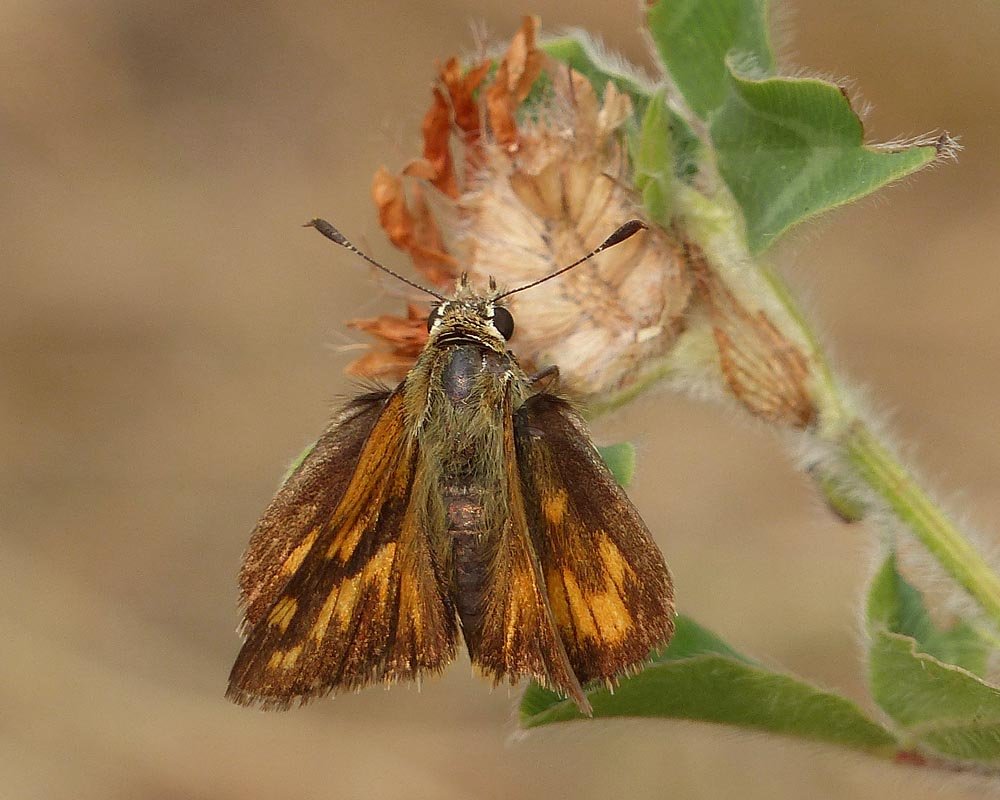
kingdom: Animalia
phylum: Arthropoda
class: Insecta
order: Lepidoptera
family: Hesperiidae
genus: Ochlodes
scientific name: Ochlodes sylvanoides
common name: Woodland Skipper
